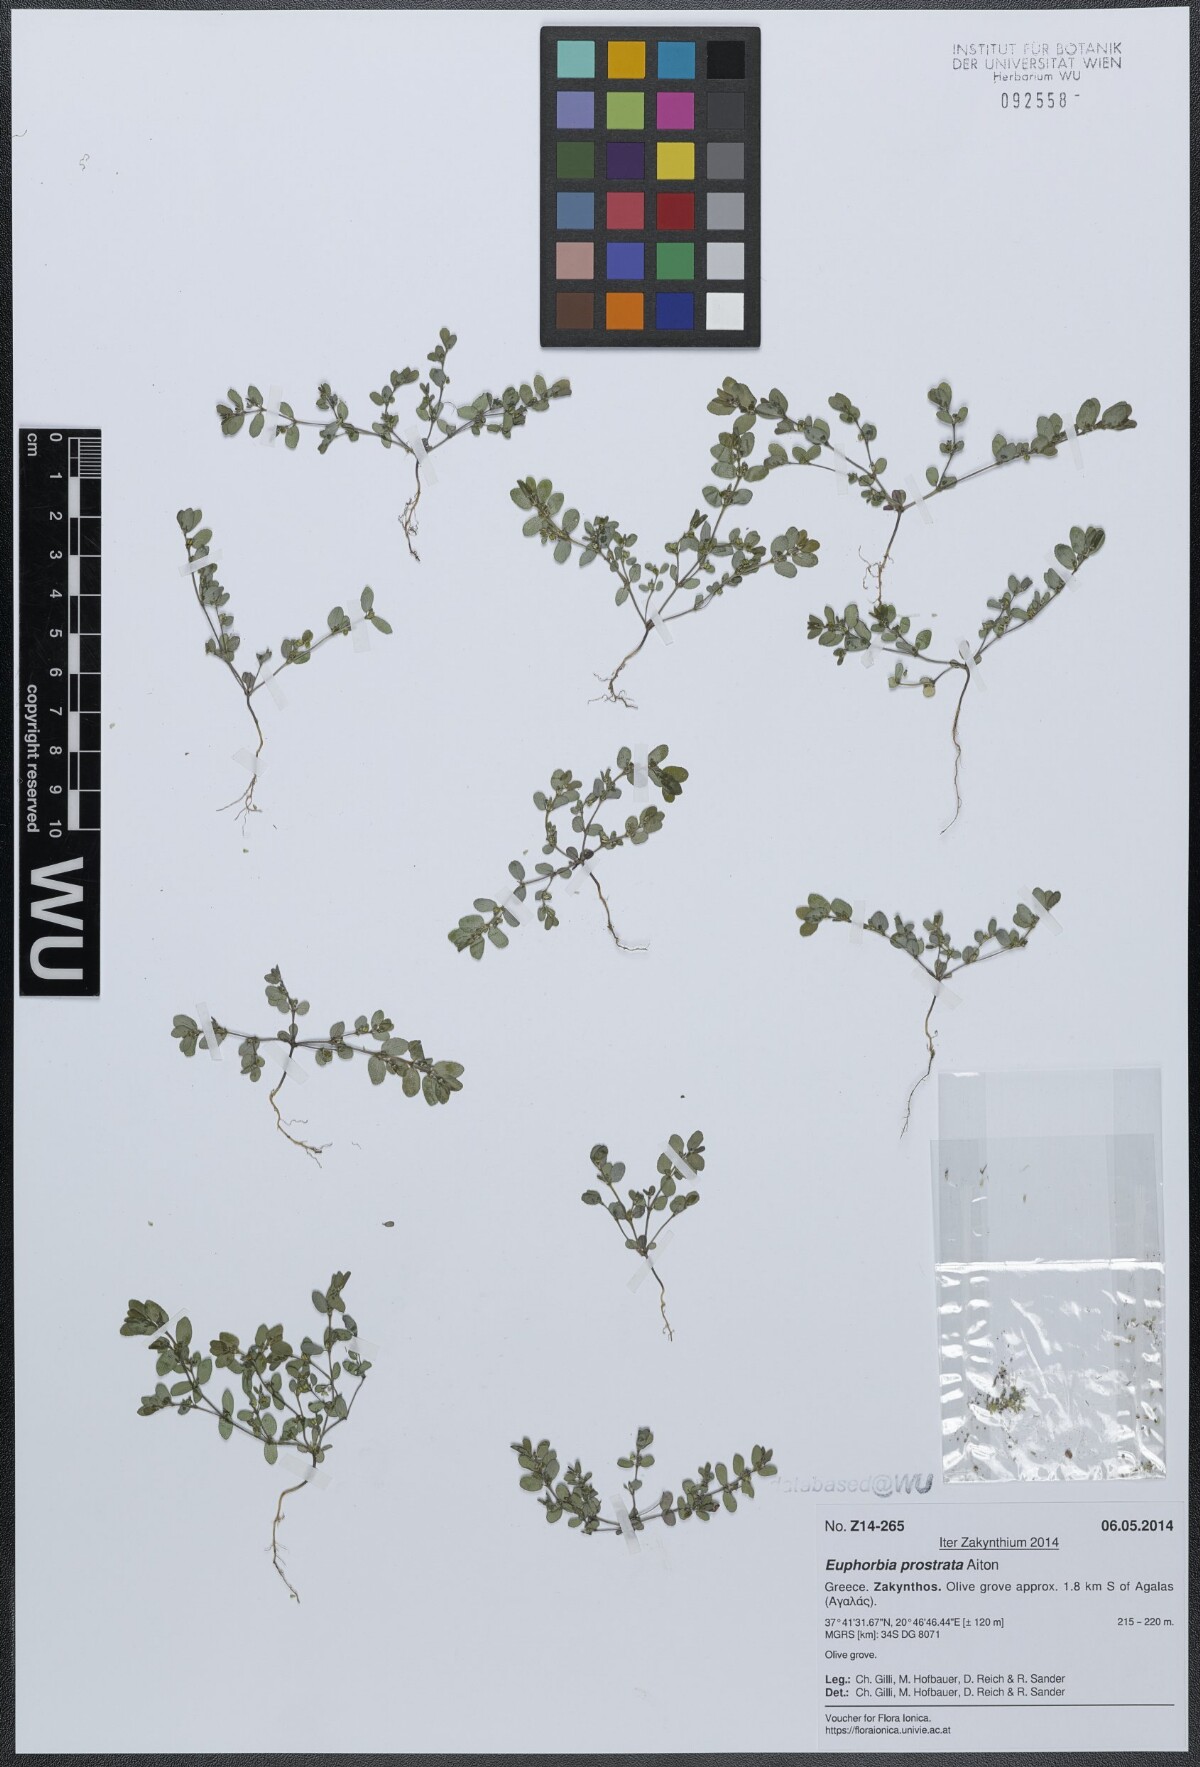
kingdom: Plantae
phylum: Tracheophyta
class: Magnoliopsida
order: Malpighiales
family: Euphorbiaceae
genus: Euphorbia
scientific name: Euphorbia prostrata
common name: Prostrate sandmat
